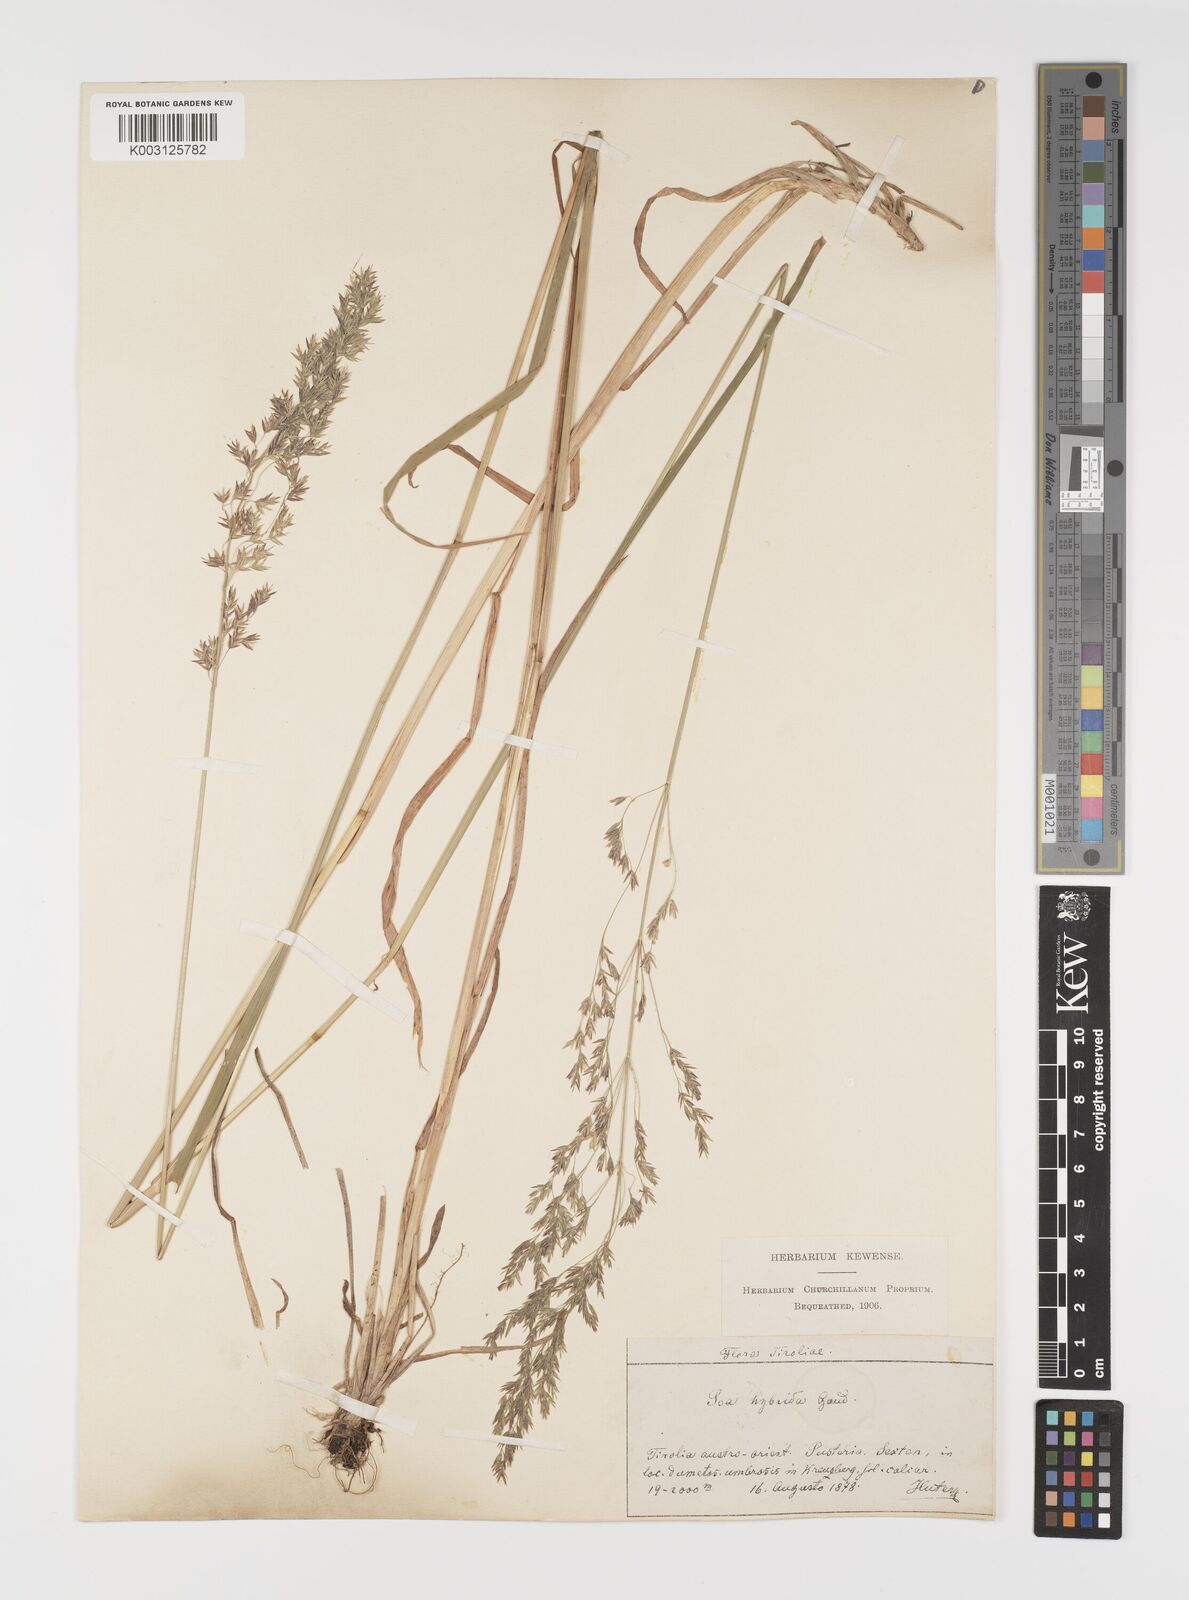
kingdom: Plantae
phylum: Tracheophyta
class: Liliopsida
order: Poales
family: Poaceae
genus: Poa
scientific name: Poa hybrida
